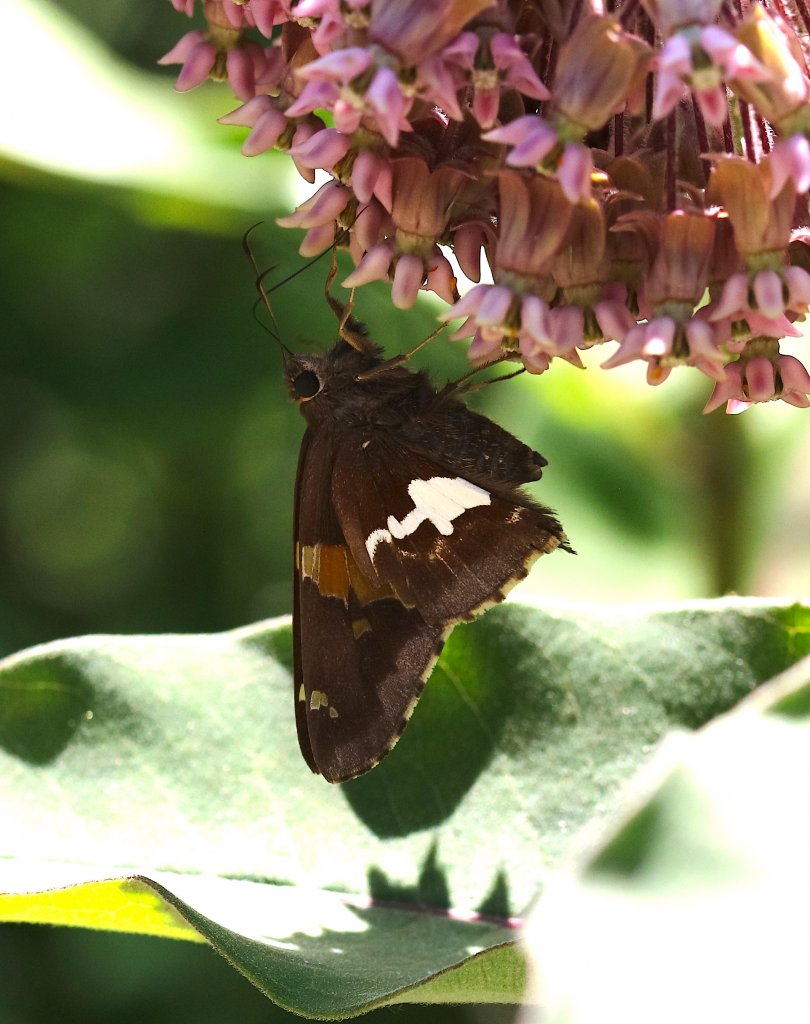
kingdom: Animalia
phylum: Arthropoda
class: Insecta
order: Lepidoptera
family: Hesperiidae
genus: Epargyreus
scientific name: Epargyreus clarus
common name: Silver-spotted Skipper
